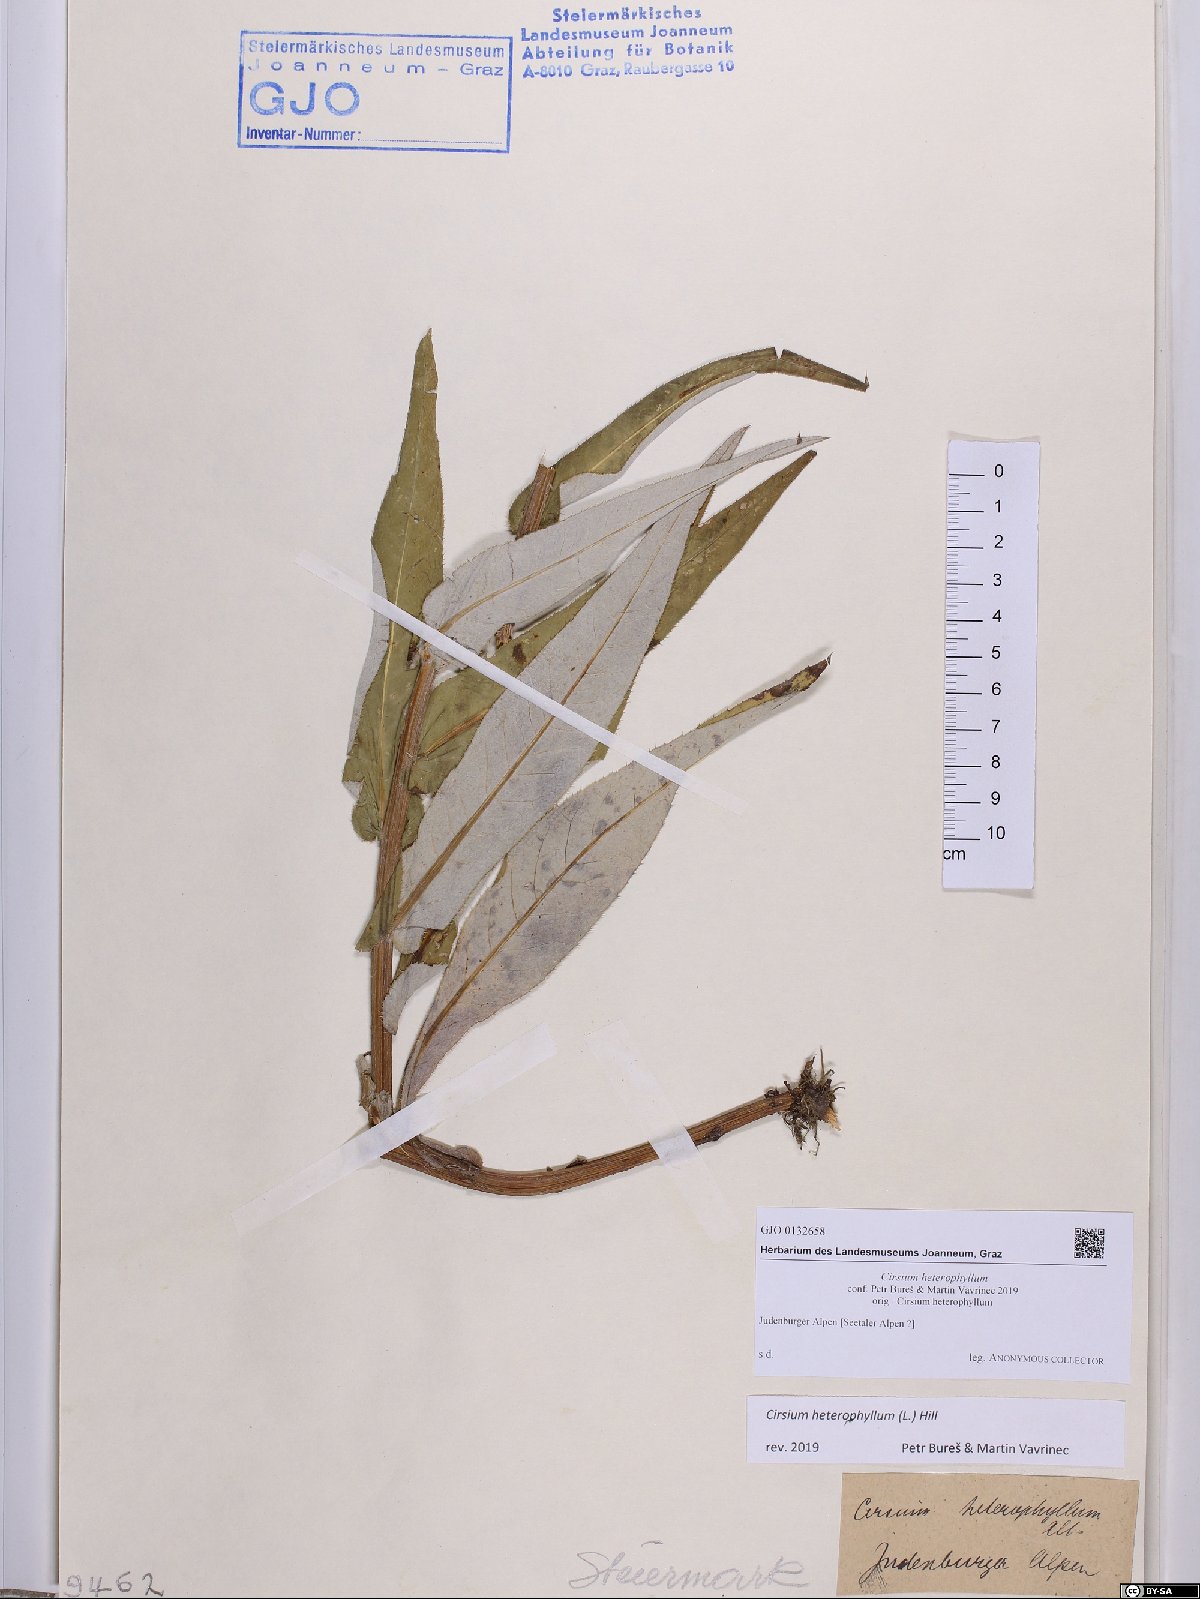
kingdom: Plantae
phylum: Tracheophyta
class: Magnoliopsida
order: Asterales
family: Asteraceae
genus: Cirsium
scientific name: Cirsium heterophyllum
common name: Melancholy thistle
